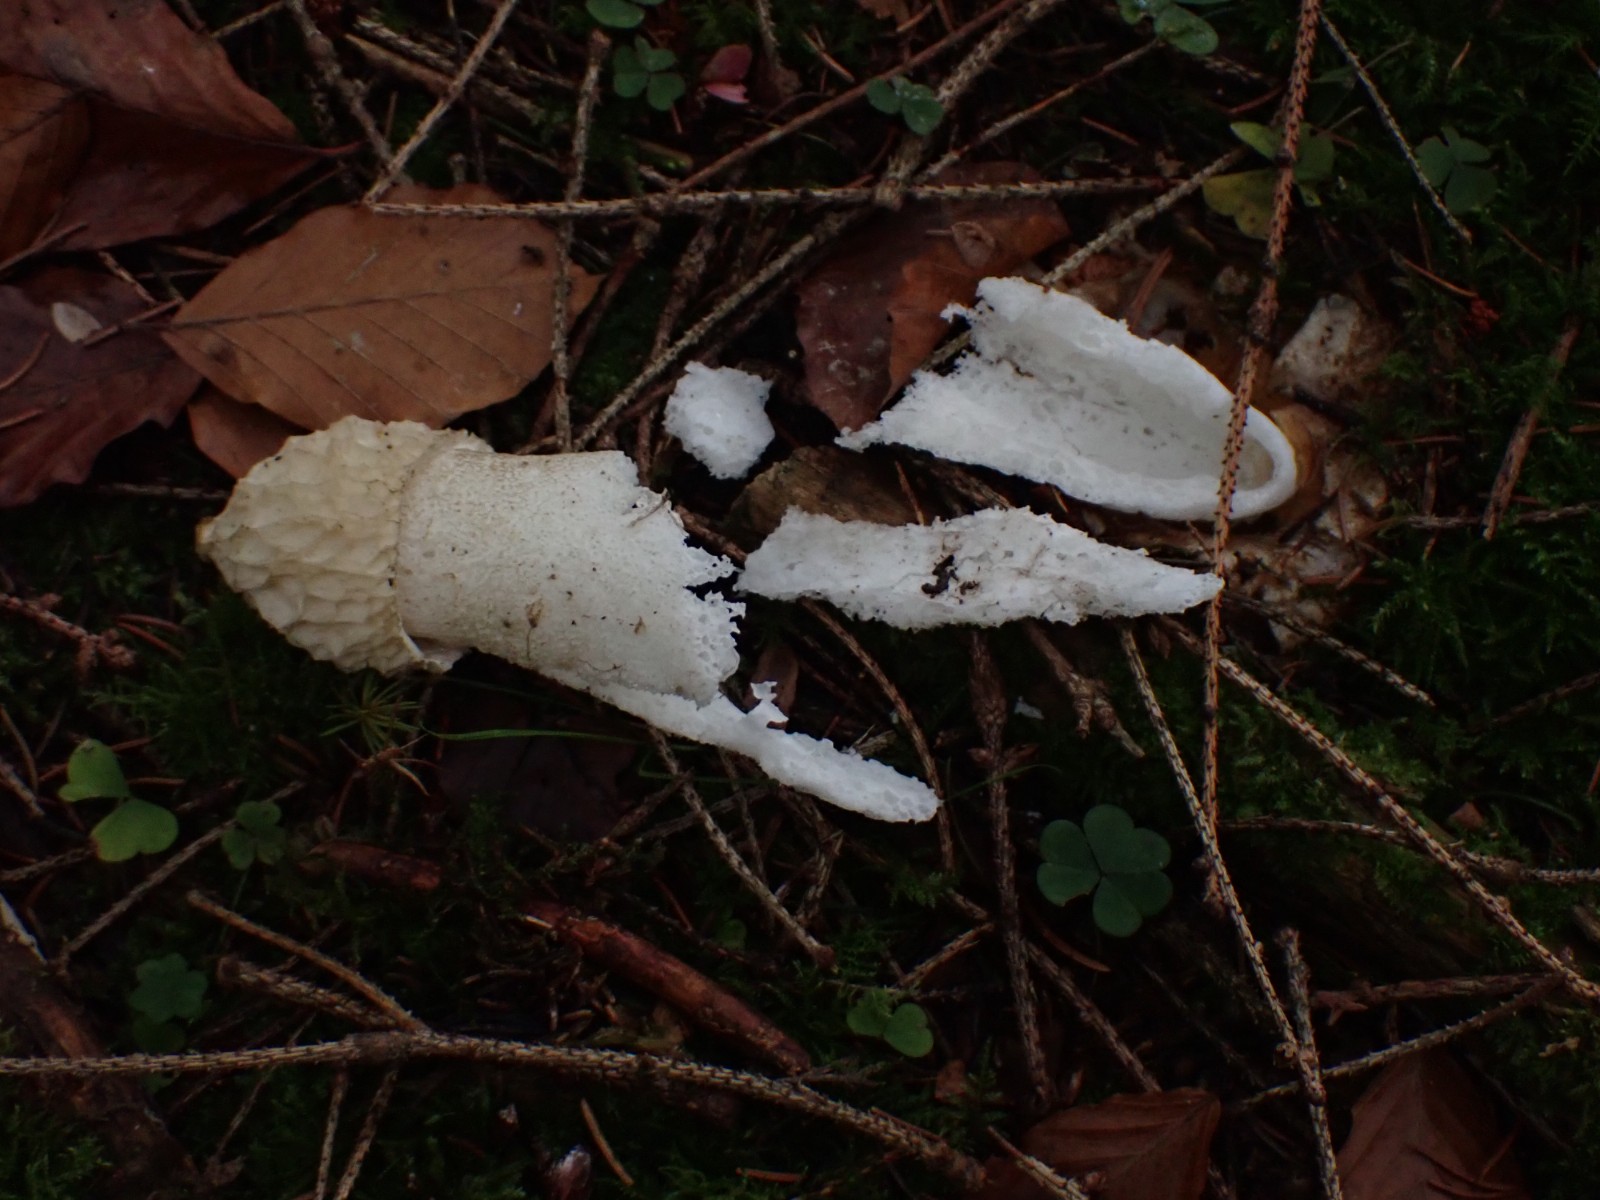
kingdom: Fungi
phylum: Basidiomycota
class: Agaricomycetes
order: Phallales
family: Phallaceae
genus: Phallus
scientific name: Phallus impudicus
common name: almindelig stinksvamp
